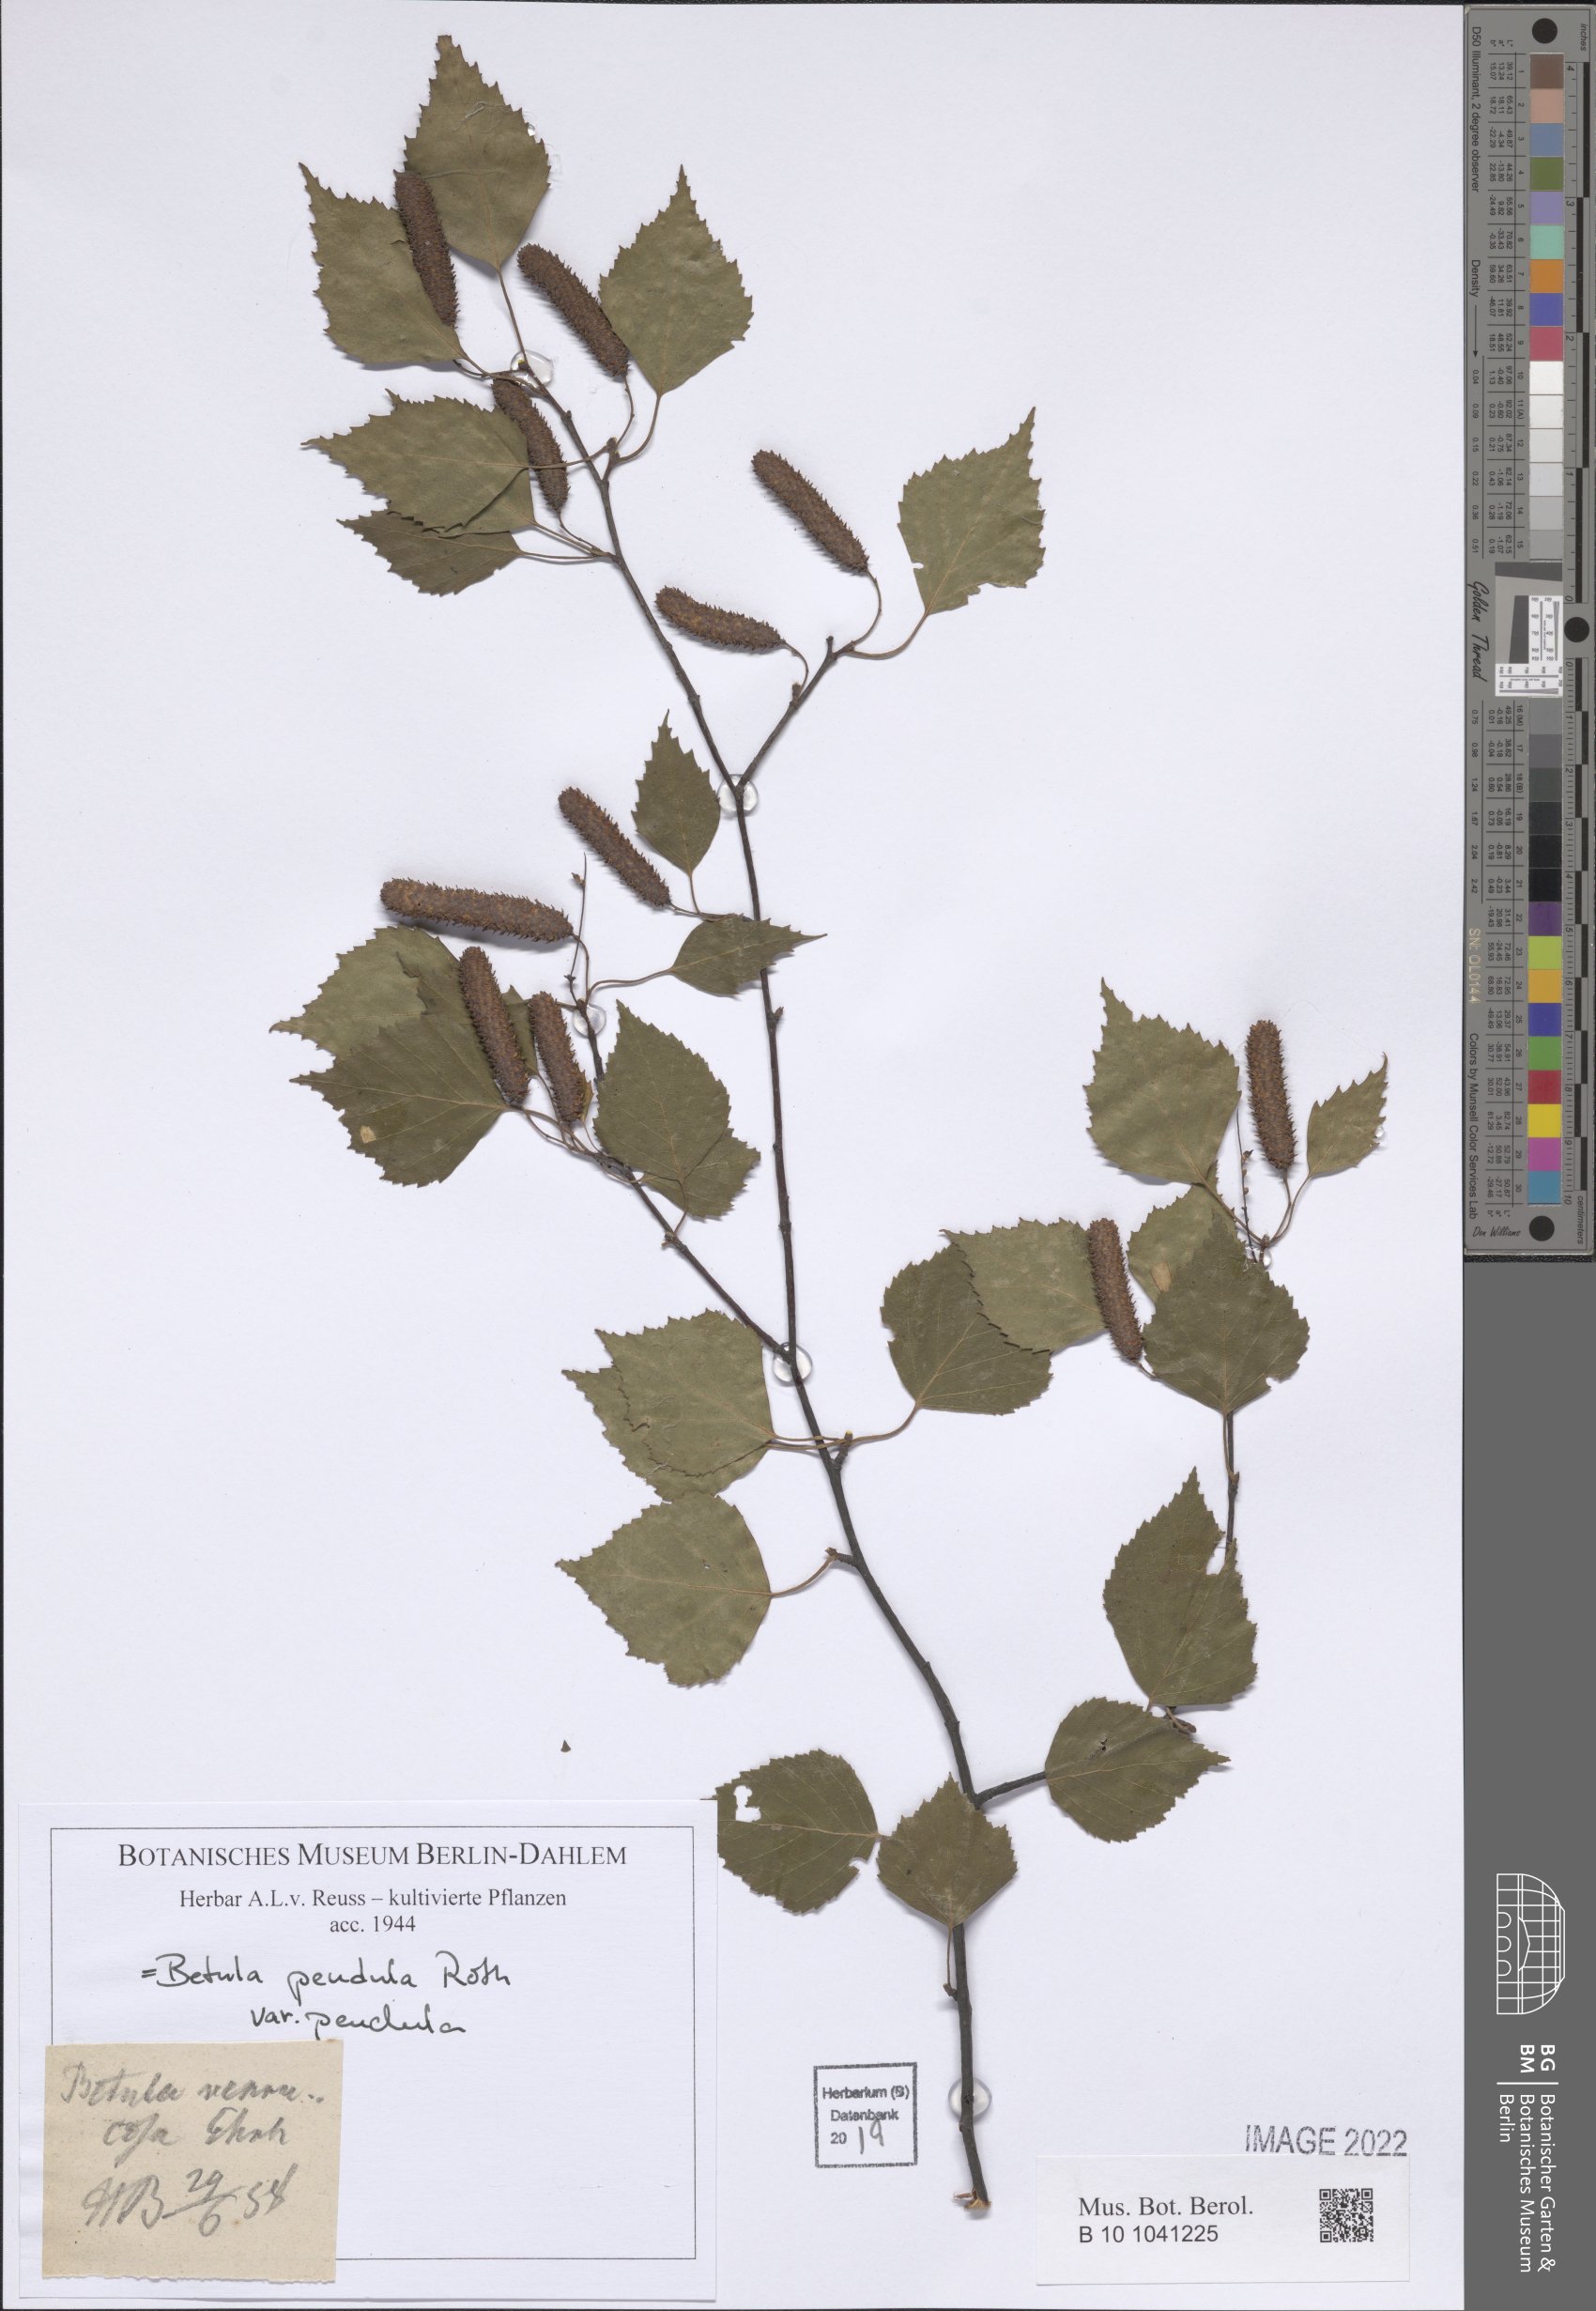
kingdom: Plantae
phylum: Tracheophyta
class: Magnoliopsida
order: Fagales
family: Betulaceae
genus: Betula
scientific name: Betula pendula
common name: Silver birch
